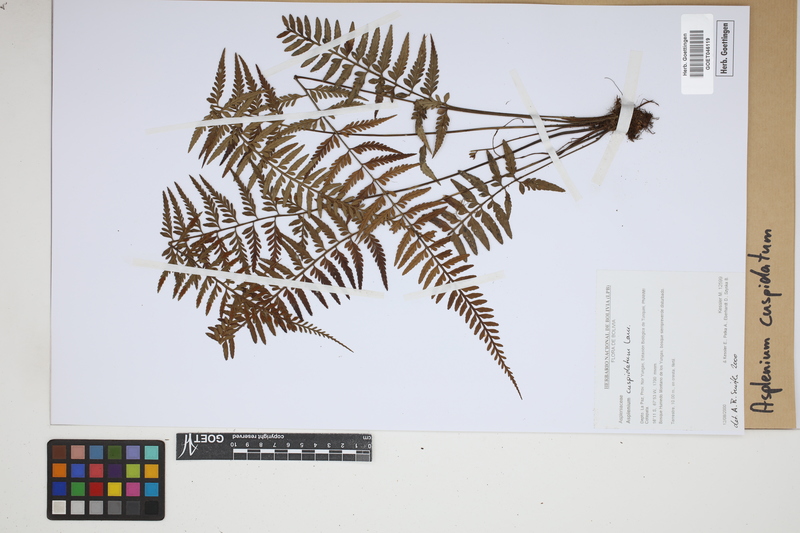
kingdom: Plantae
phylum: Tracheophyta
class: Polypodiopsida
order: Polypodiales
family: Aspleniaceae
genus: Asplenium
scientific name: Asplenium cuspidatum
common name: Eared spleenwort
